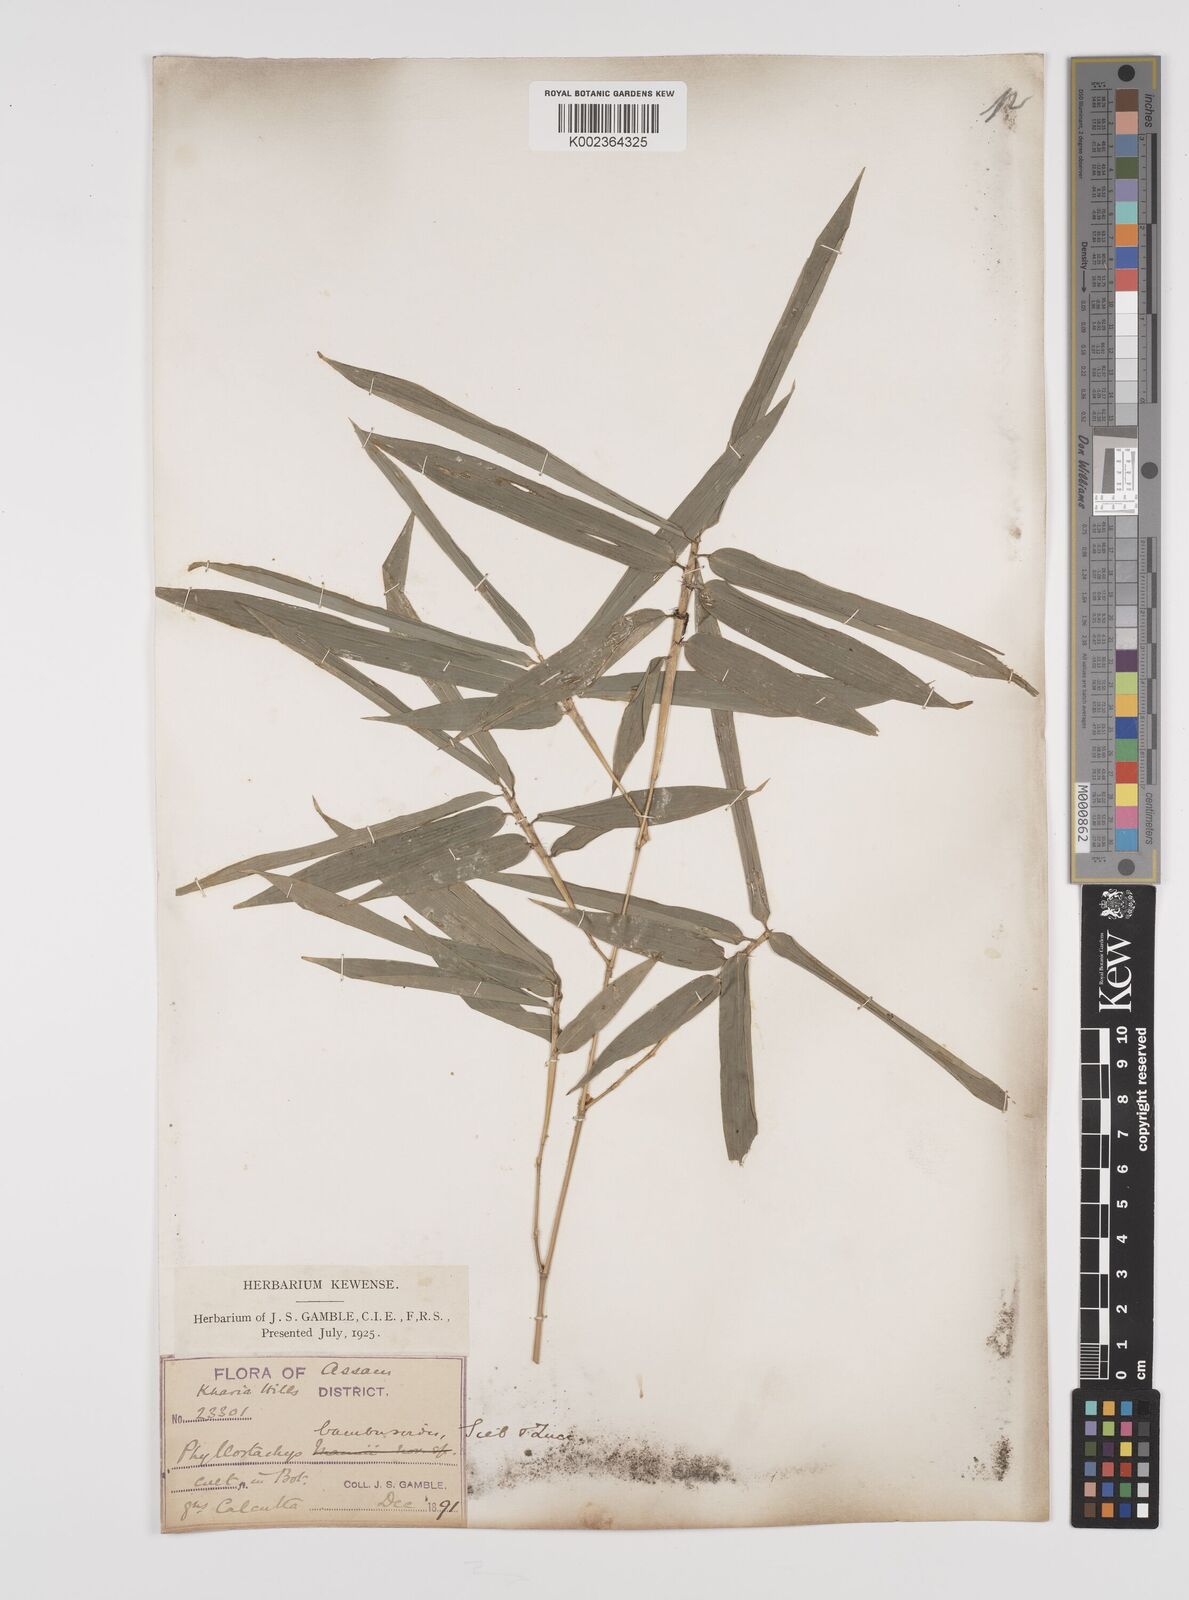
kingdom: Plantae
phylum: Tracheophyta
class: Liliopsida
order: Poales
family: Poaceae
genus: Phyllostachys
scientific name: Phyllostachys reticulata
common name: Bamboo
